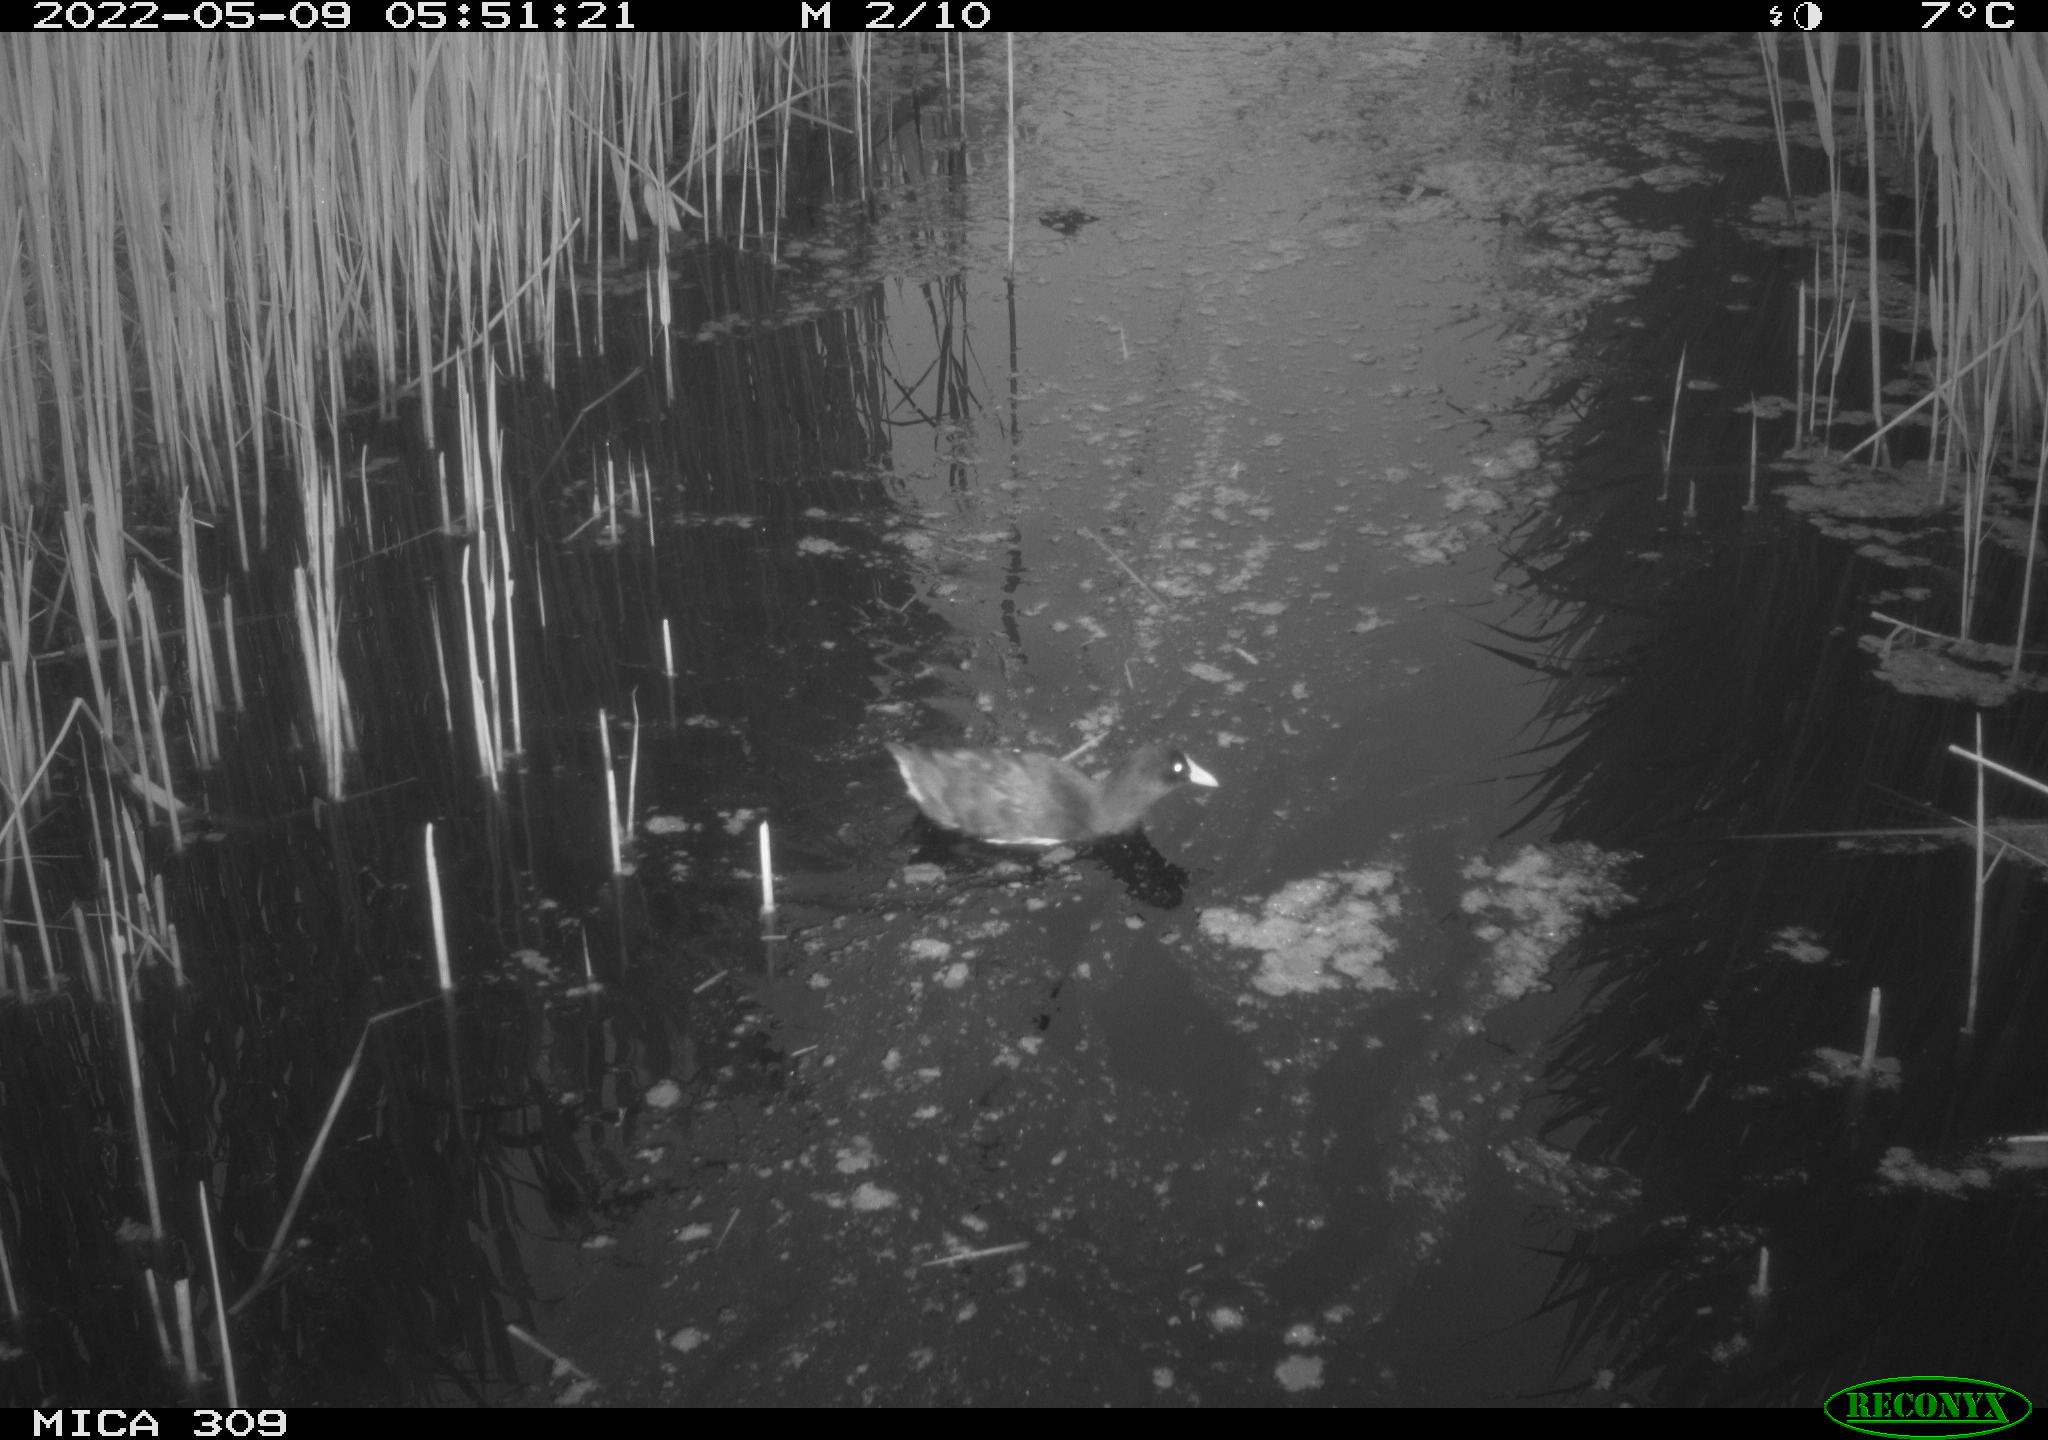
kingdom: Animalia
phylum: Chordata
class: Aves
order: Gruiformes
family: Rallidae
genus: Fulica
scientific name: Fulica atra
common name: Eurasian coot
